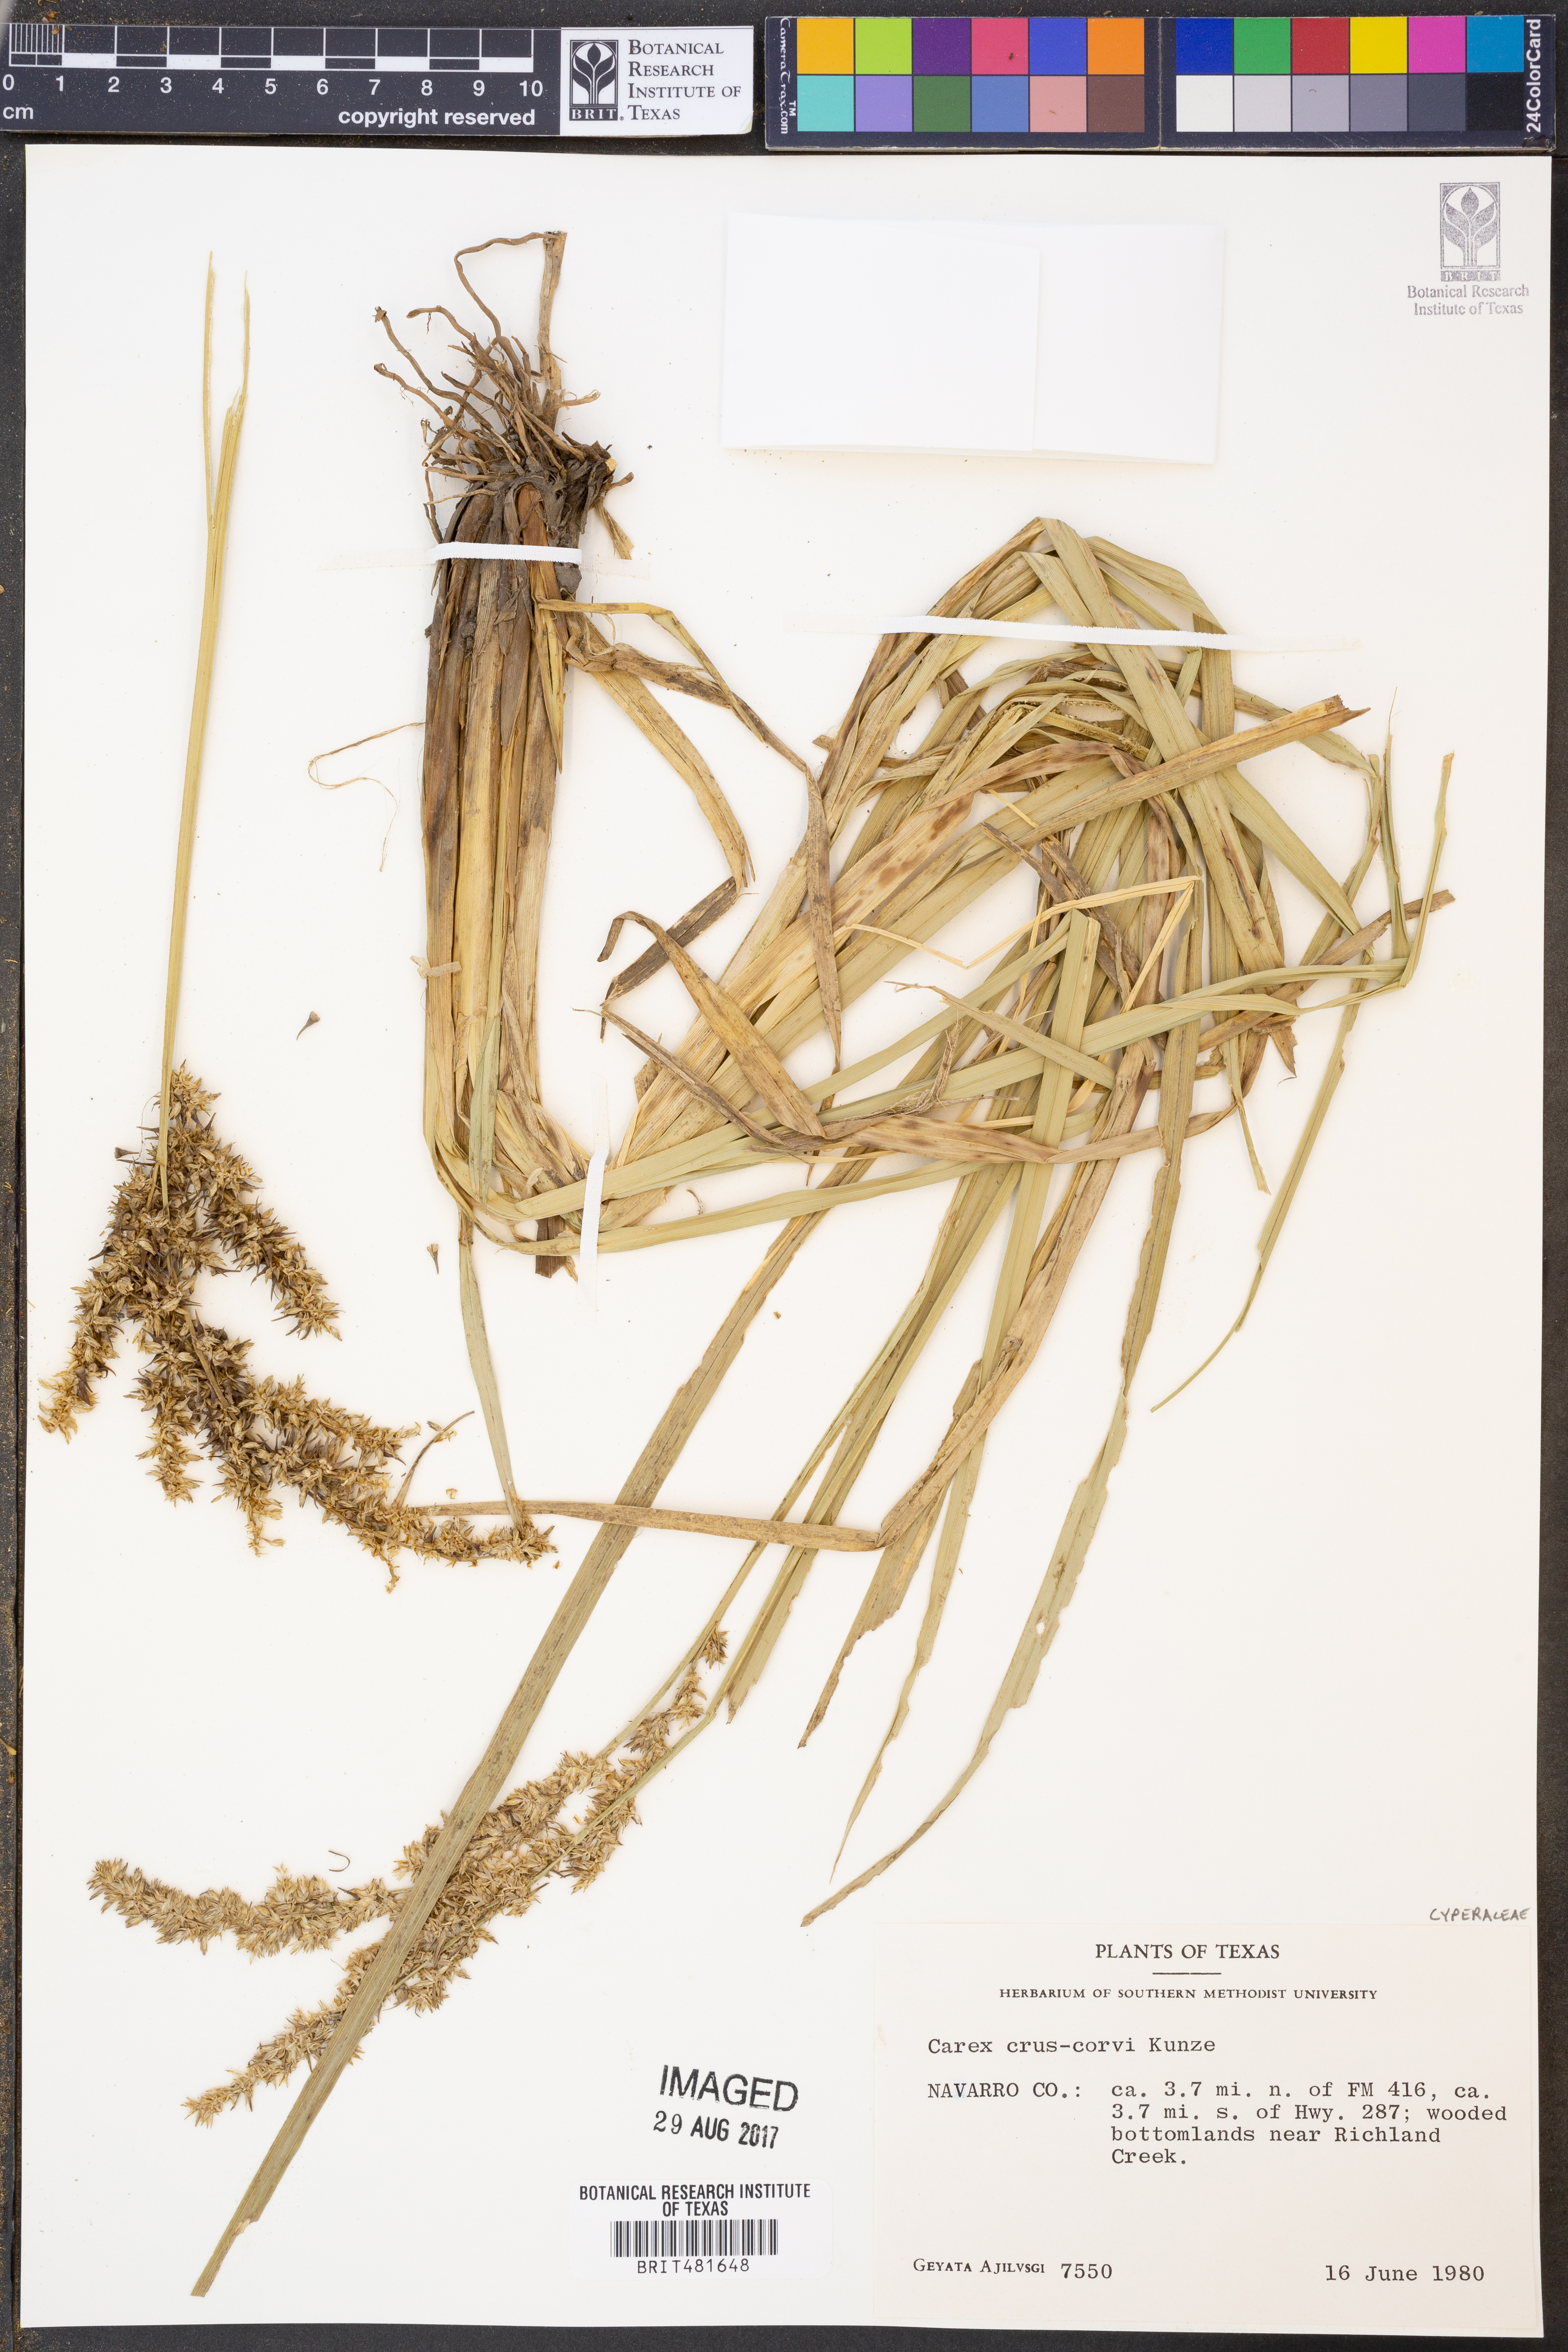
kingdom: Plantae
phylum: Tracheophyta
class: Liliopsida
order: Poales
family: Cyperaceae
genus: Carex
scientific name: Carex crus-corvi
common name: Crow-spur sedge
